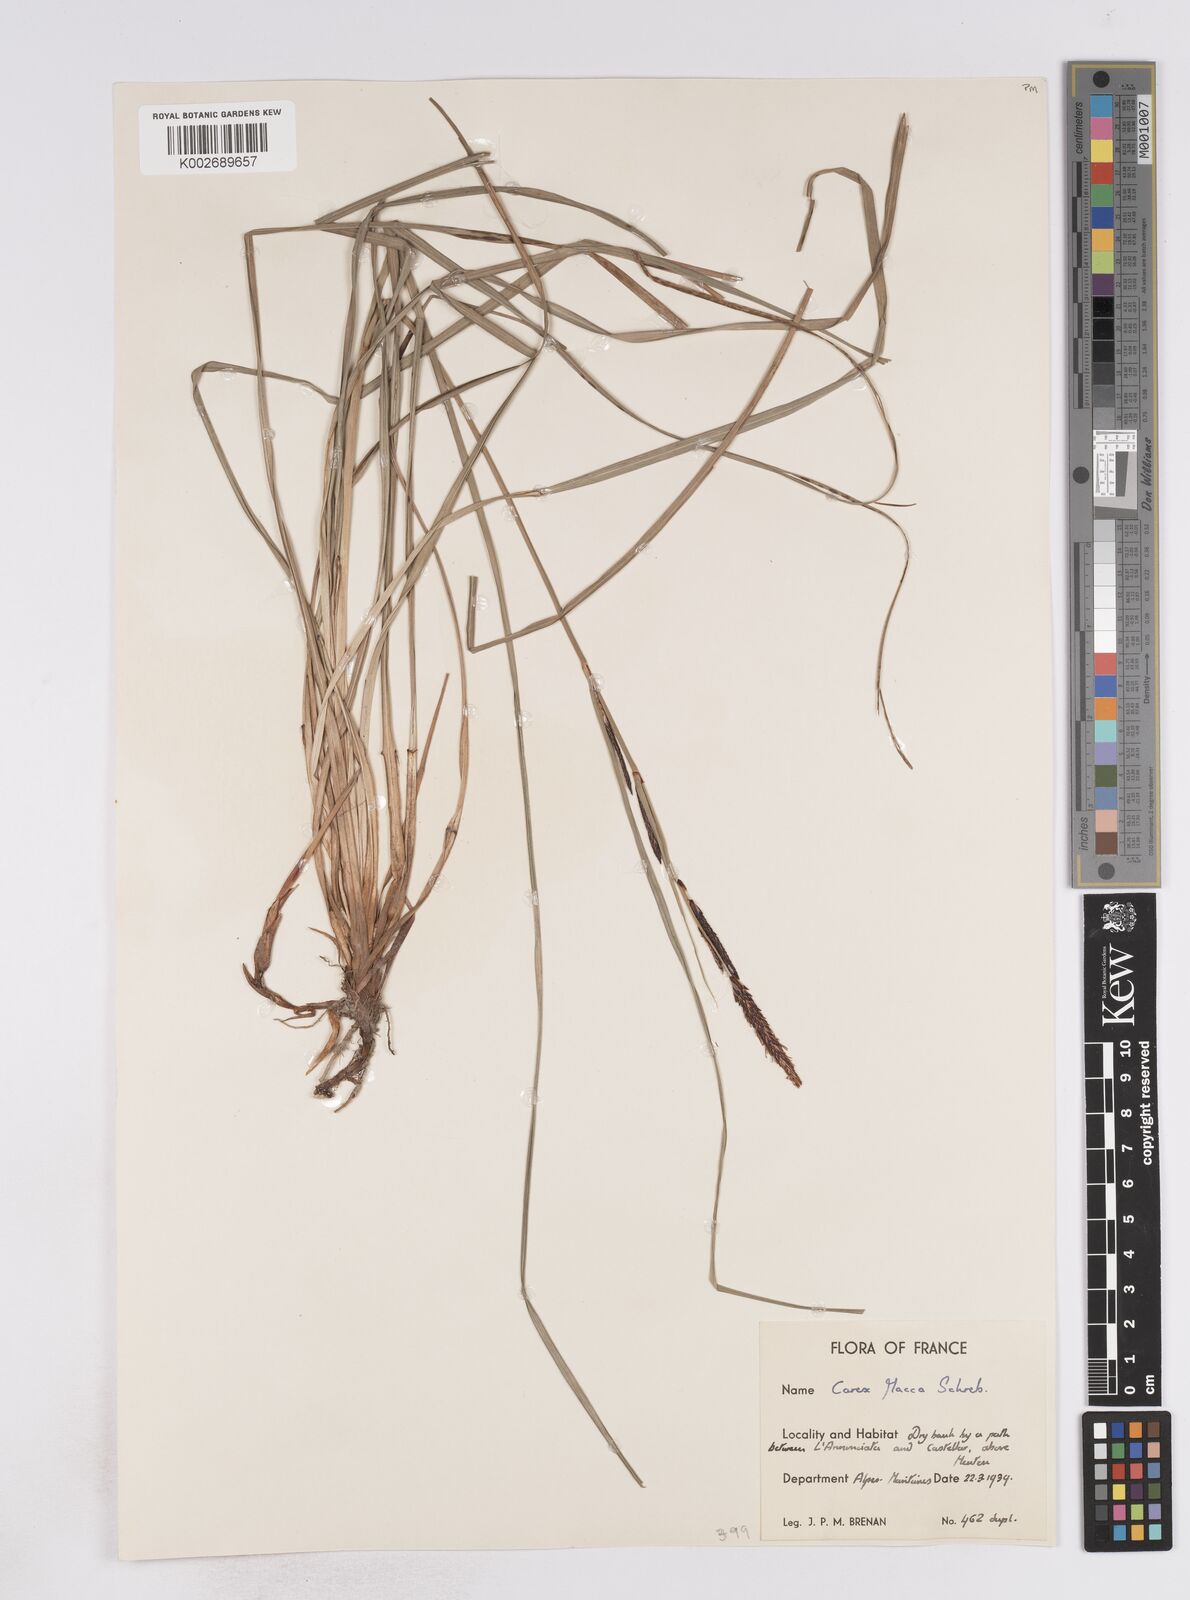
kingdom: Plantae
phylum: Tracheophyta
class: Liliopsida
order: Poales
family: Cyperaceae
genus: Carex
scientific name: Carex flacca
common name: Glaucous sedge
